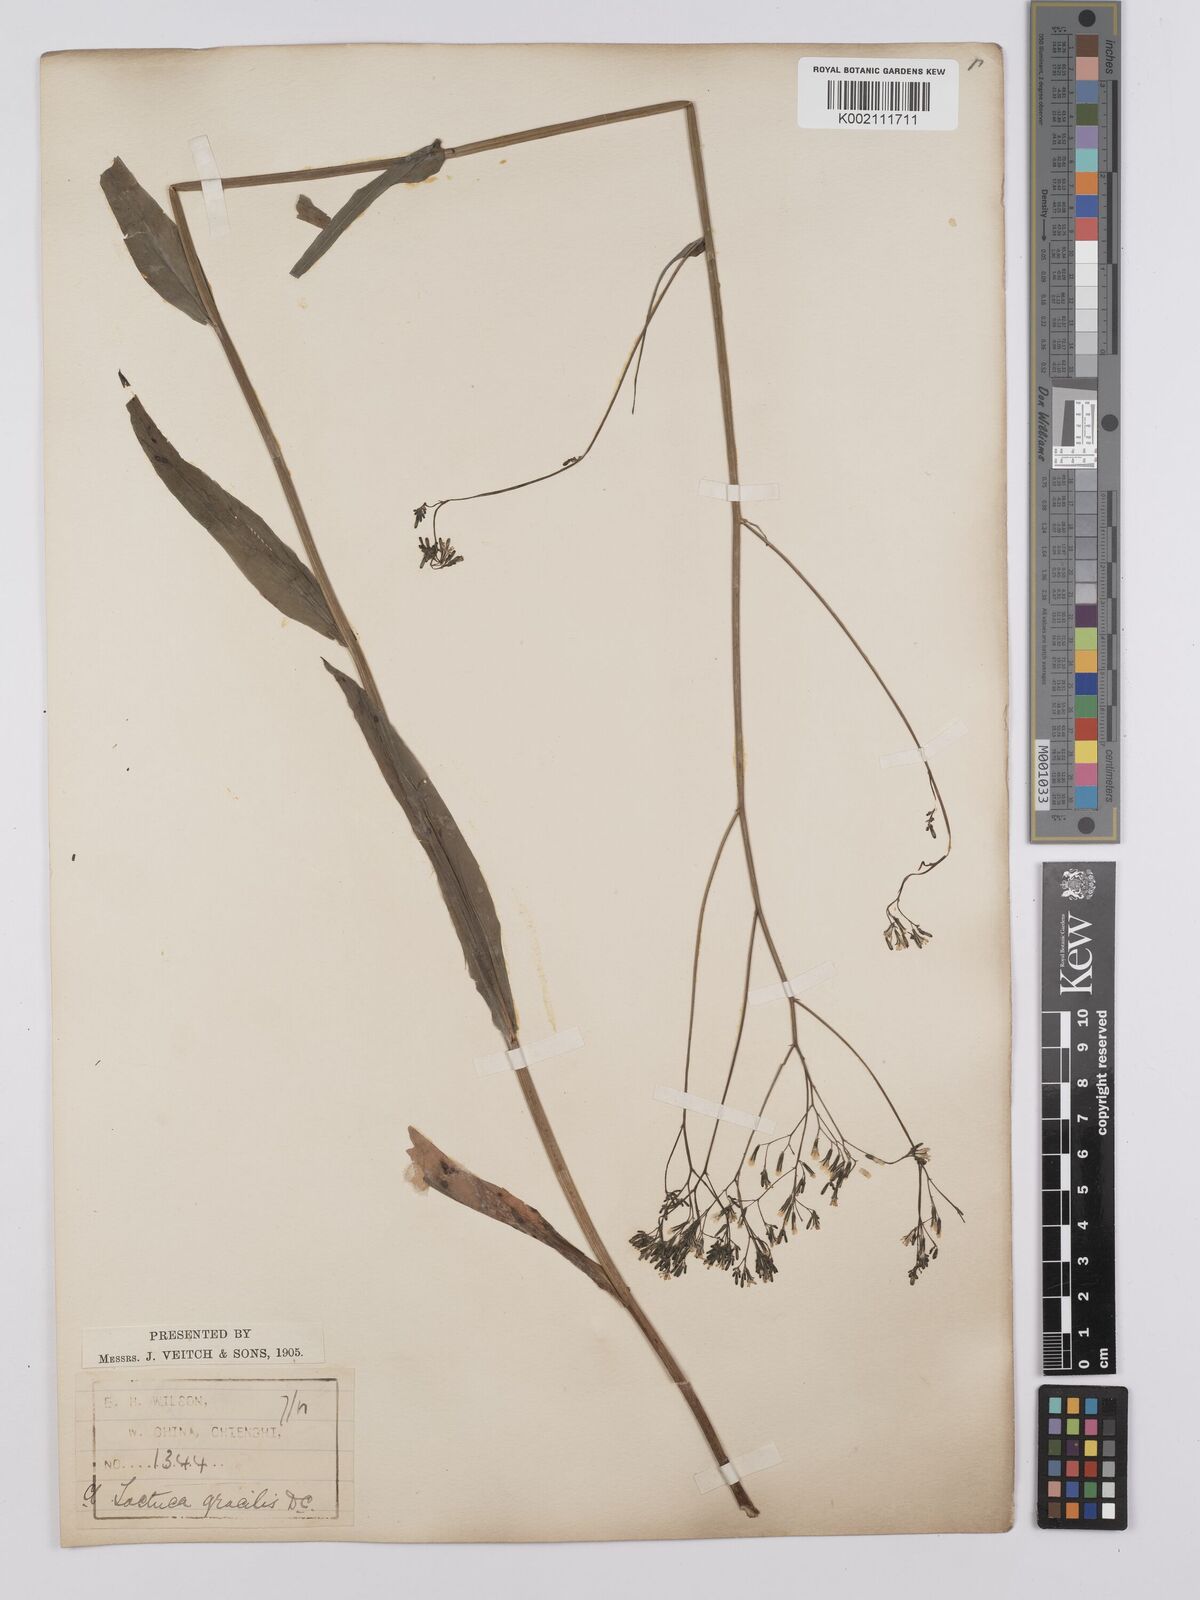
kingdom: Plantae
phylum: Tracheophyta
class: Magnoliopsida
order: Asterales
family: Asteraceae
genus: Ixeridium
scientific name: Ixeridium gracile
